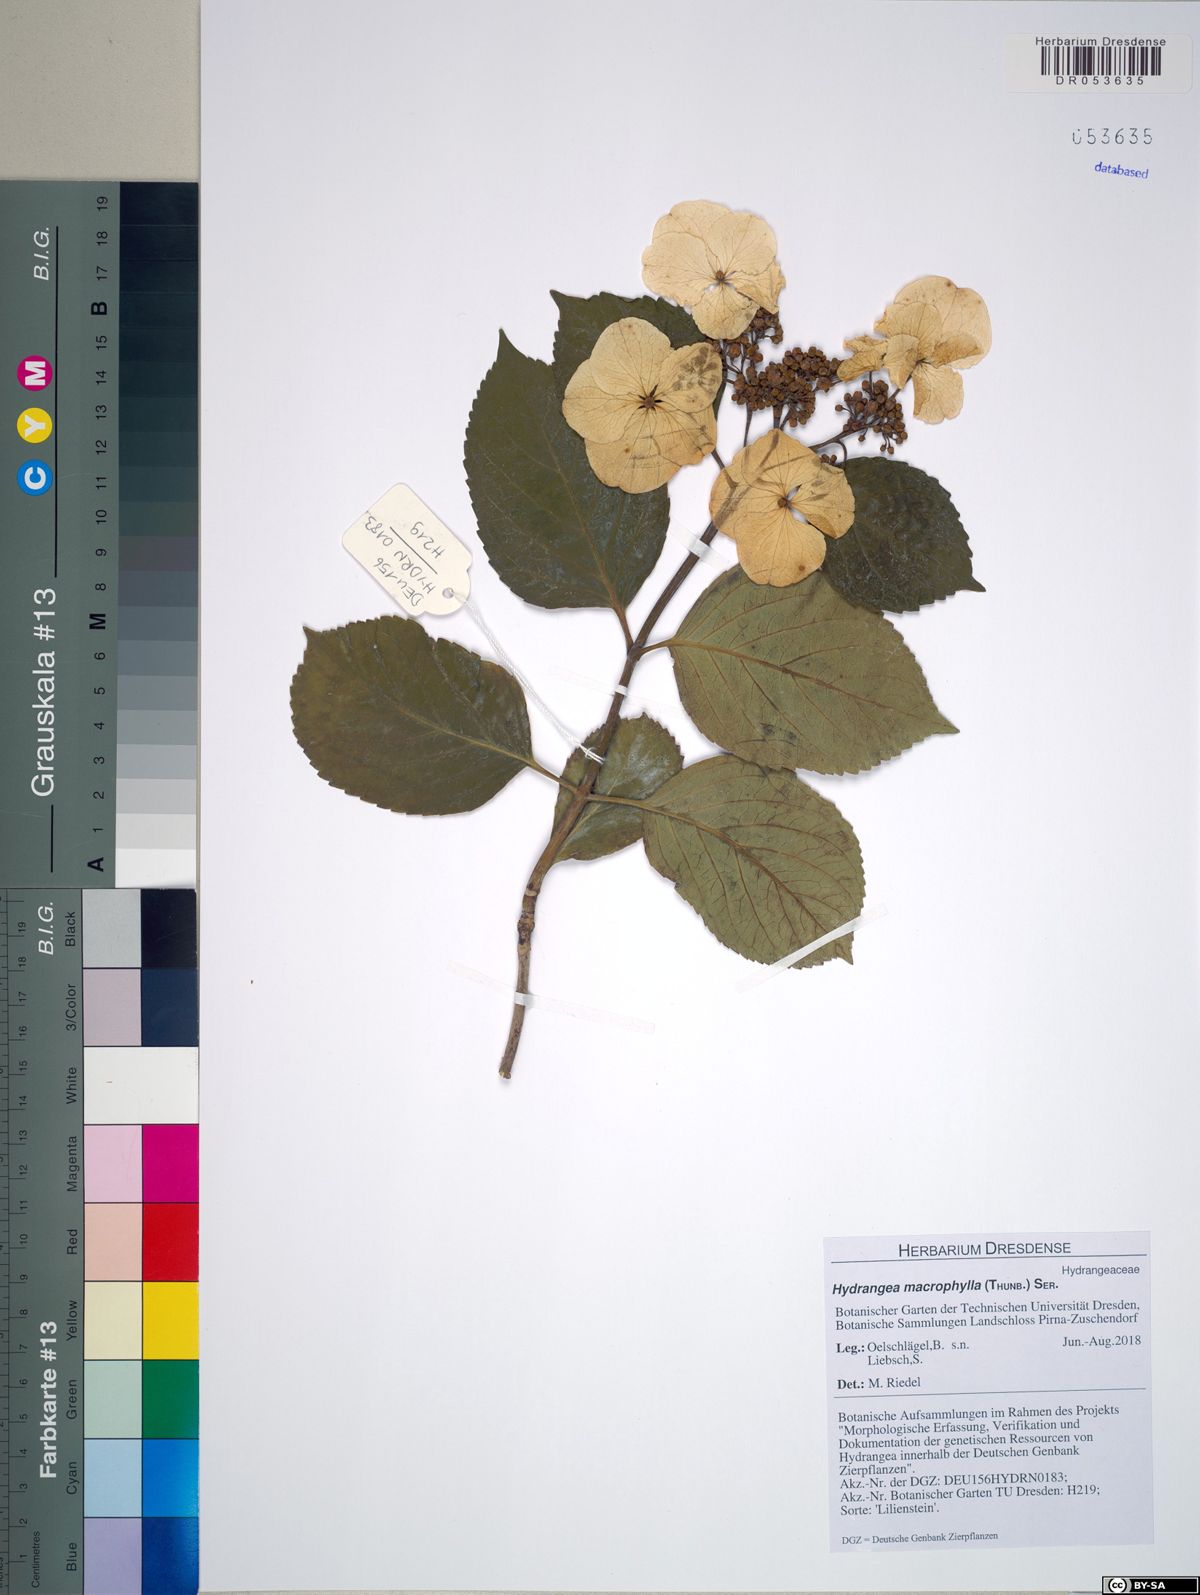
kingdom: Plantae
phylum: Tracheophyta
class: Magnoliopsida
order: Cornales
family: Hydrangeaceae
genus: Hydrangea
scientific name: Hydrangea macrophylla
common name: Hydrangea
